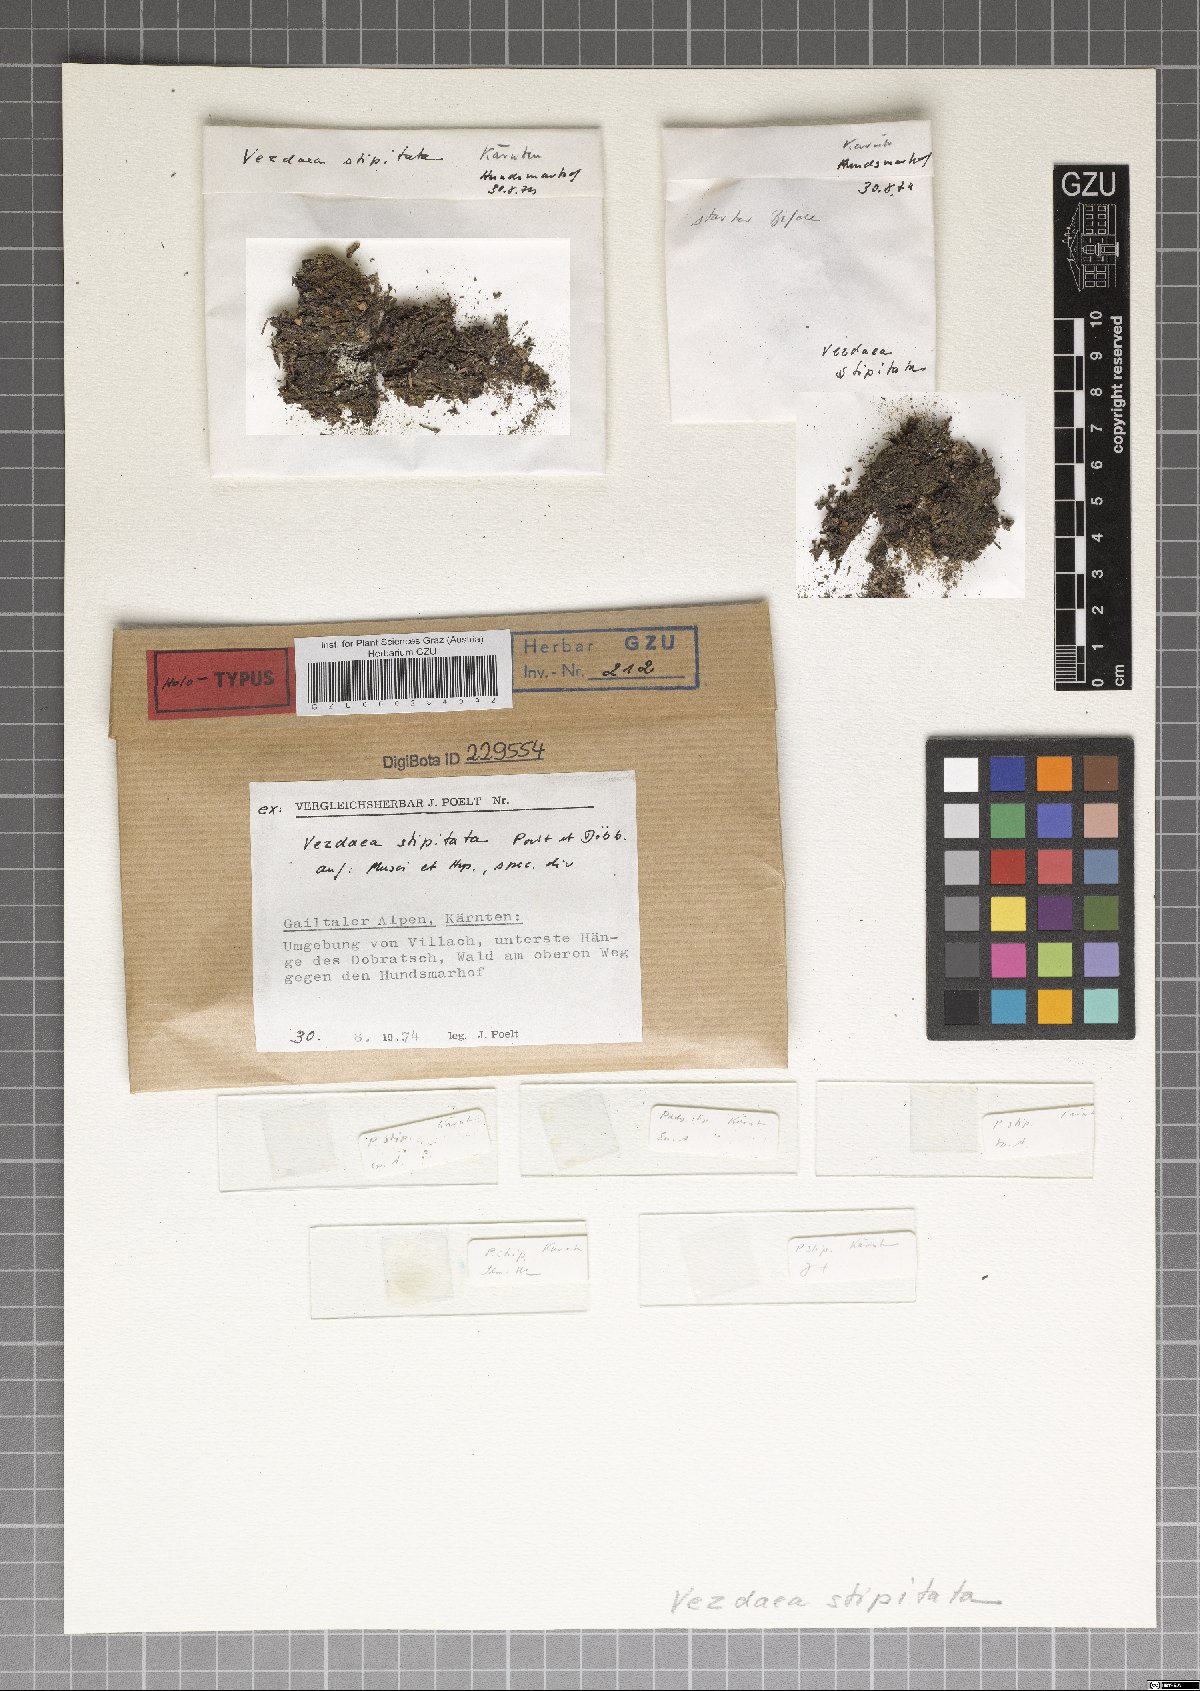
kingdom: Fungi
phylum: Ascomycota
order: Vezdaeales
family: Vezdaeaceae
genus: Vezdaea
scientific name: Vezdaea stipitata
